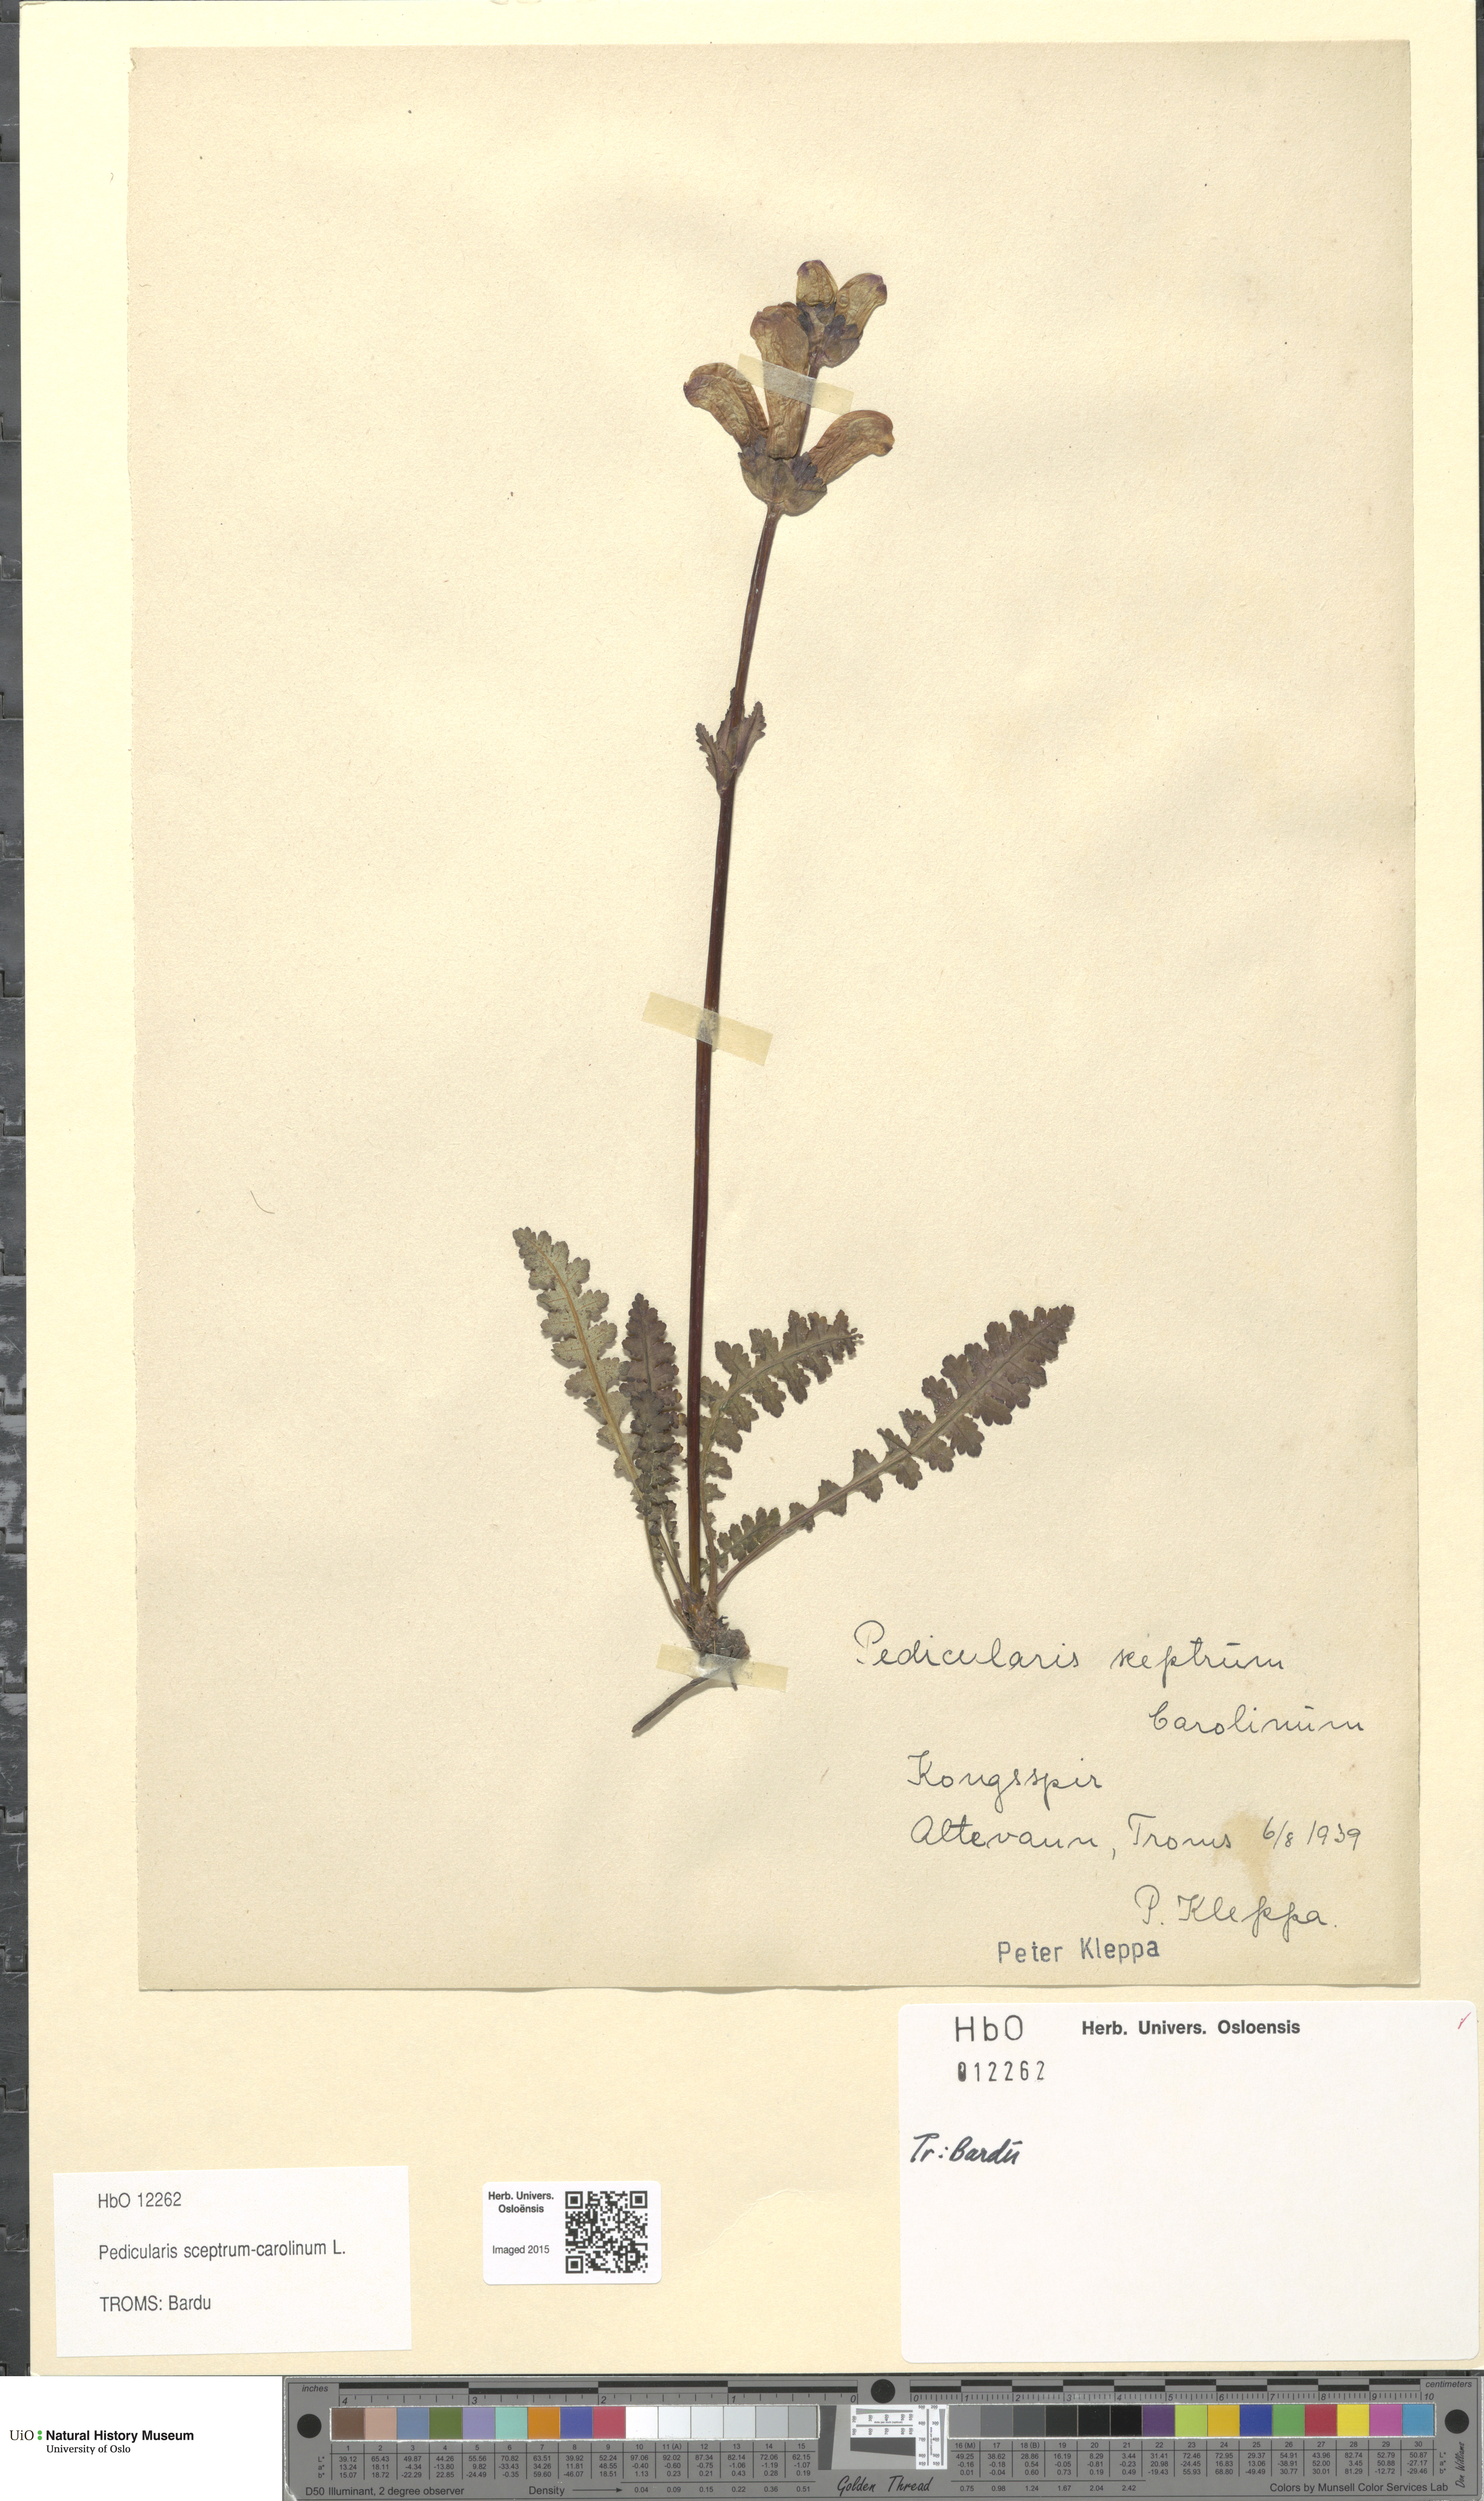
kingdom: Plantae
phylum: Tracheophyta
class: Magnoliopsida
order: Lamiales
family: Orobanchaceae
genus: Pedicularis
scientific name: Pedicularis sceptrum-carolinum
